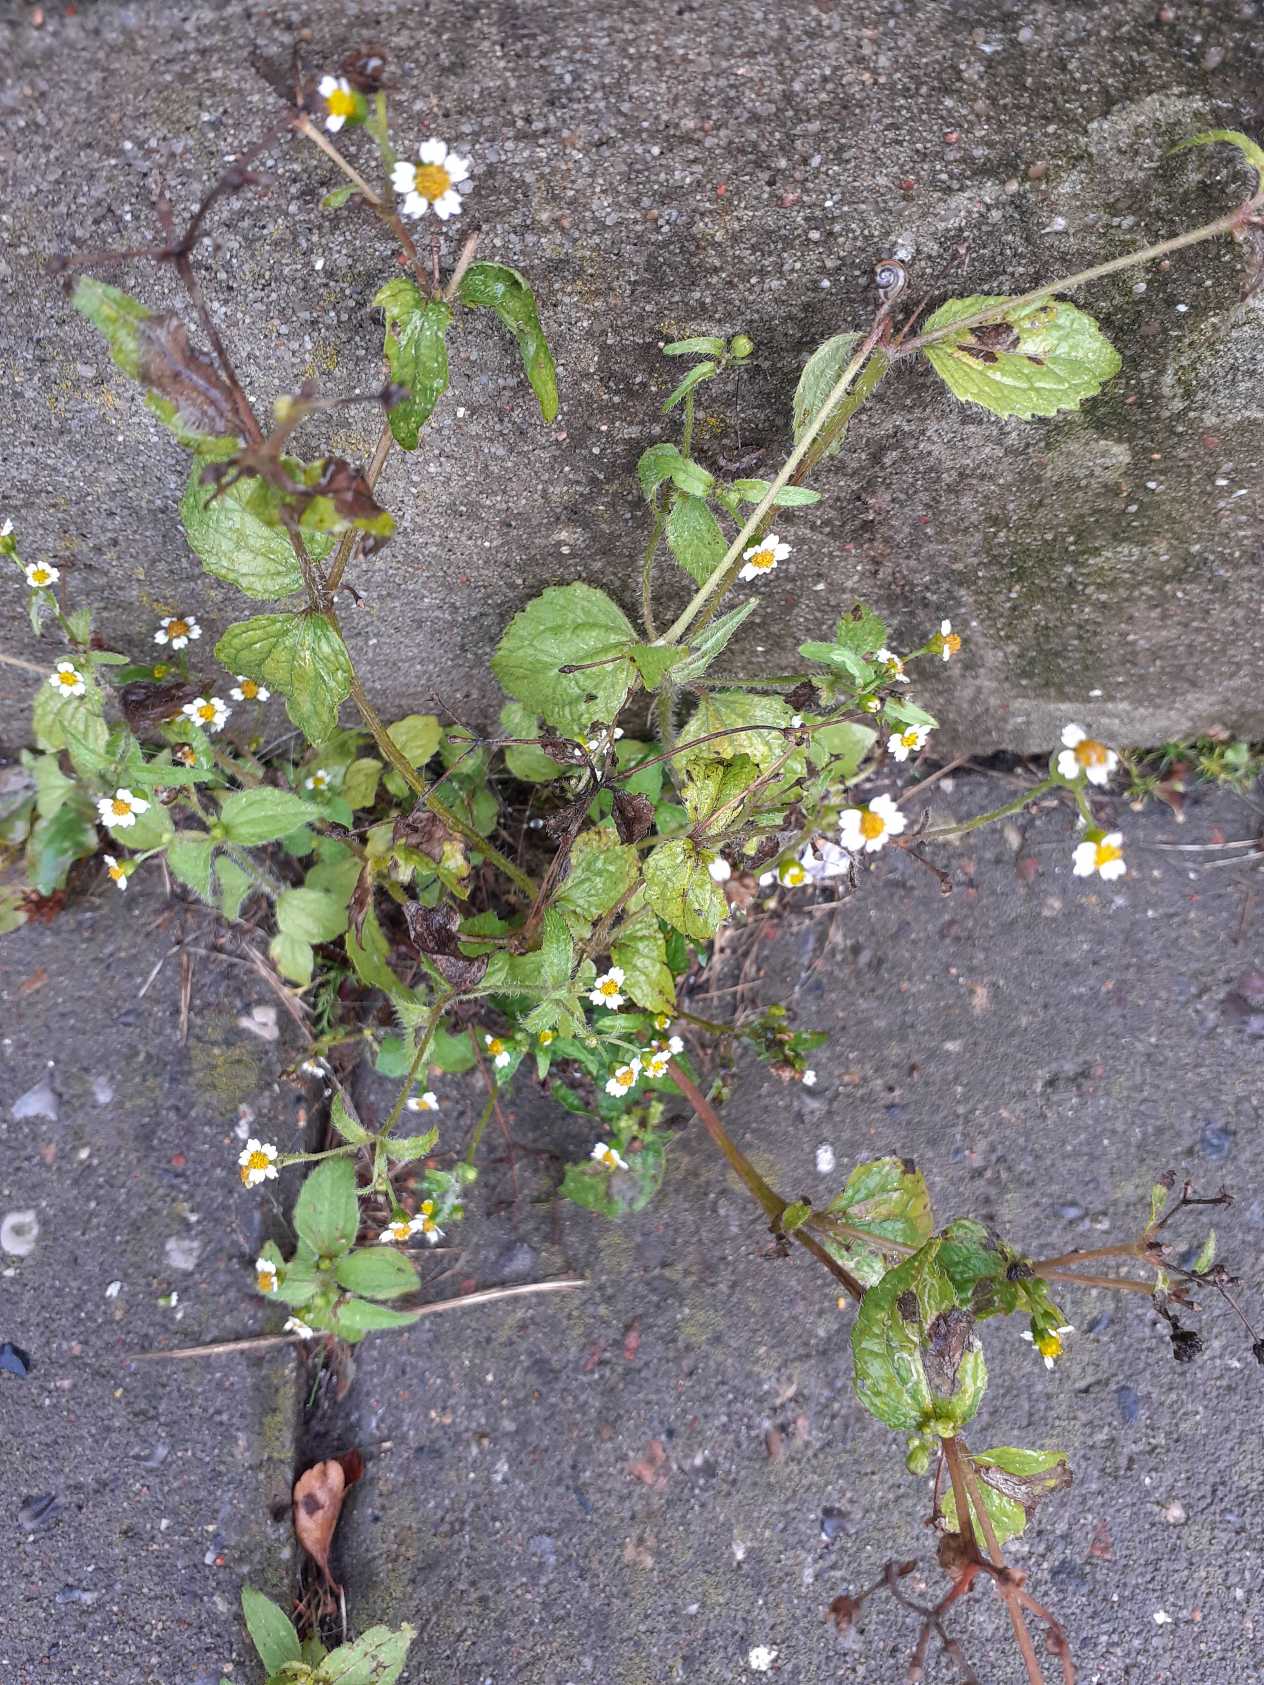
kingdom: Plantae
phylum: Tracheophyta
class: Magnoliopsida
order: Asterales
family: Asteraceae
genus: Galinsoga
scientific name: Galinsoga quadriradiata
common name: Kirtel-kortstråle
